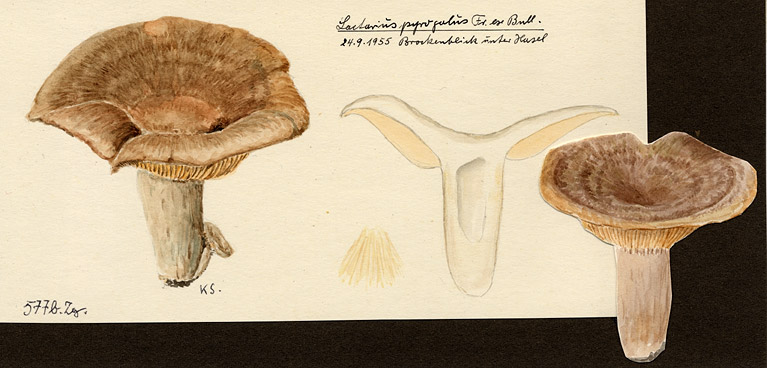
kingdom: Fungi
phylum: Basidiomycota
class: Agaricomycetes
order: Russulales
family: Russulaceae
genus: Lactarius
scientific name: Lactarius pyrogalus
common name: Fiery milkcap
